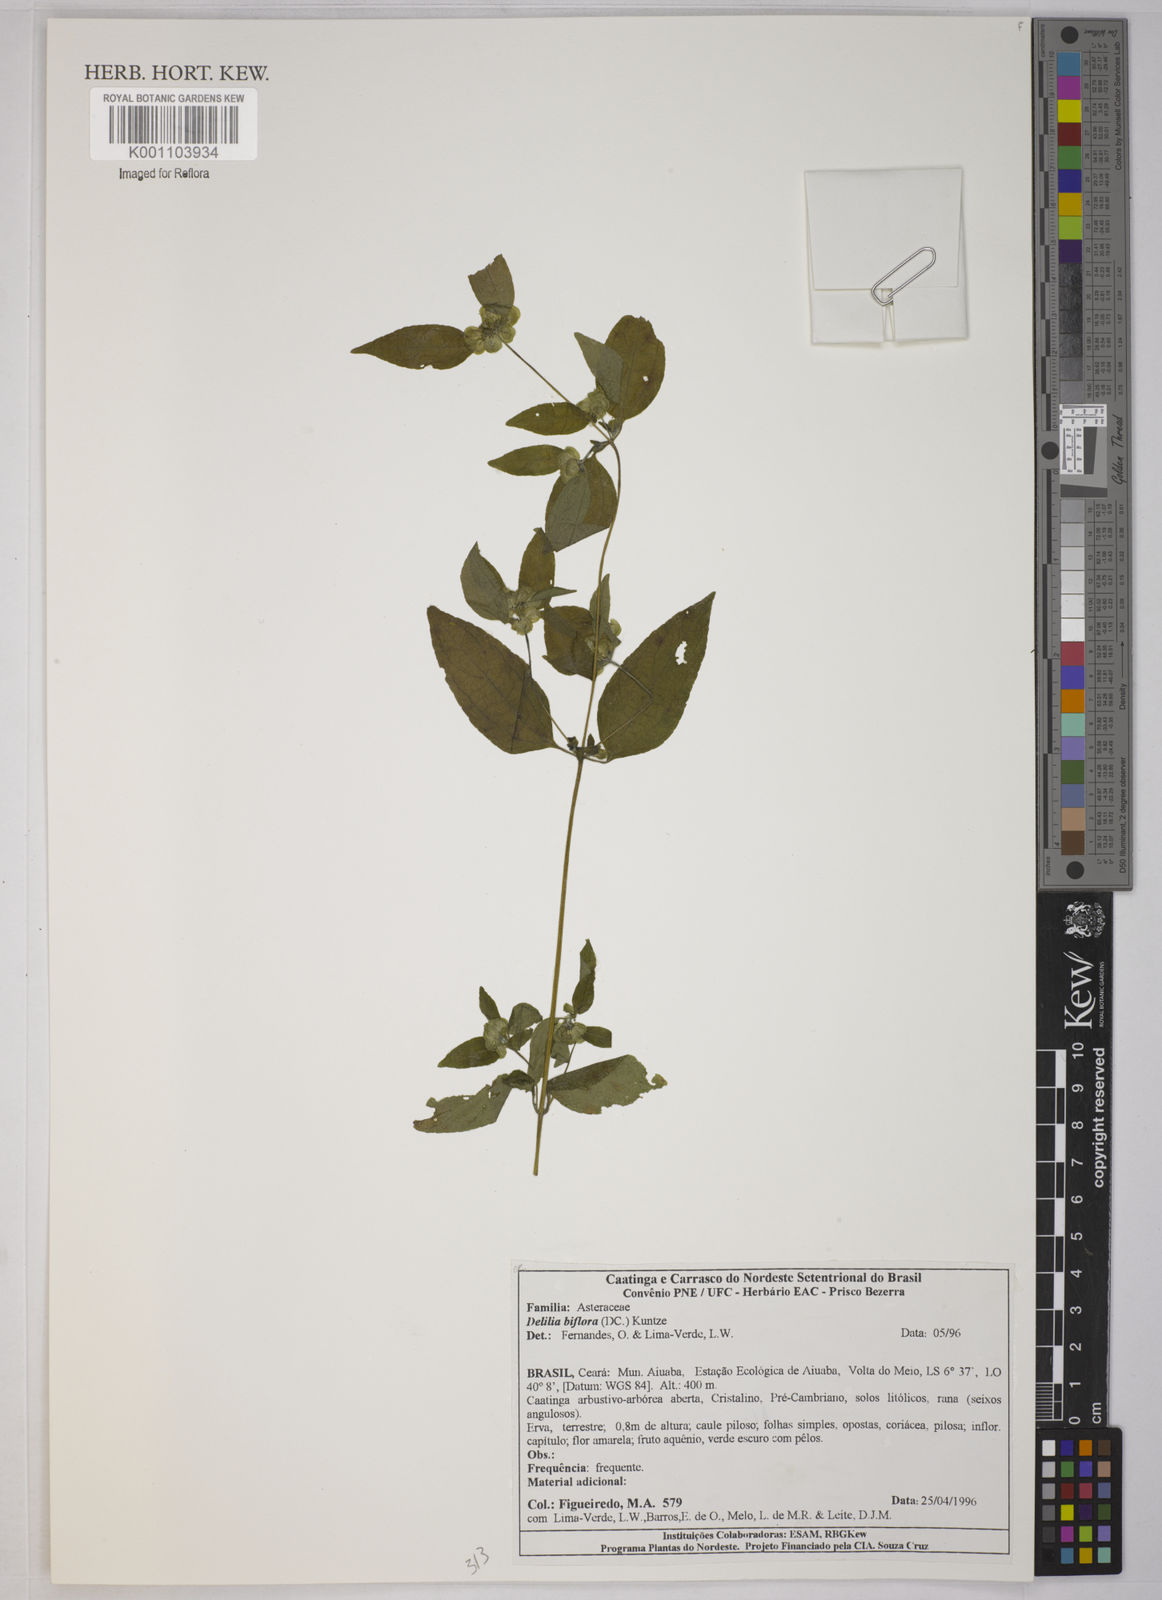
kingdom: Plantae
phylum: Tracheophyta
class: Magnoliopsida
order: Asterales
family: Asteraceae
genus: Delilia
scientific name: Delilia biflora
